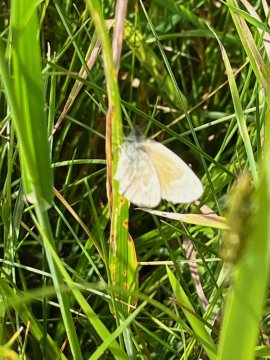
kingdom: Animalia
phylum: Arthropoda
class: Insecta
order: Lepidoptera
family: Nymphalidae
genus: Coenonympha
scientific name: Coenonympha tullia
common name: Large Heath
